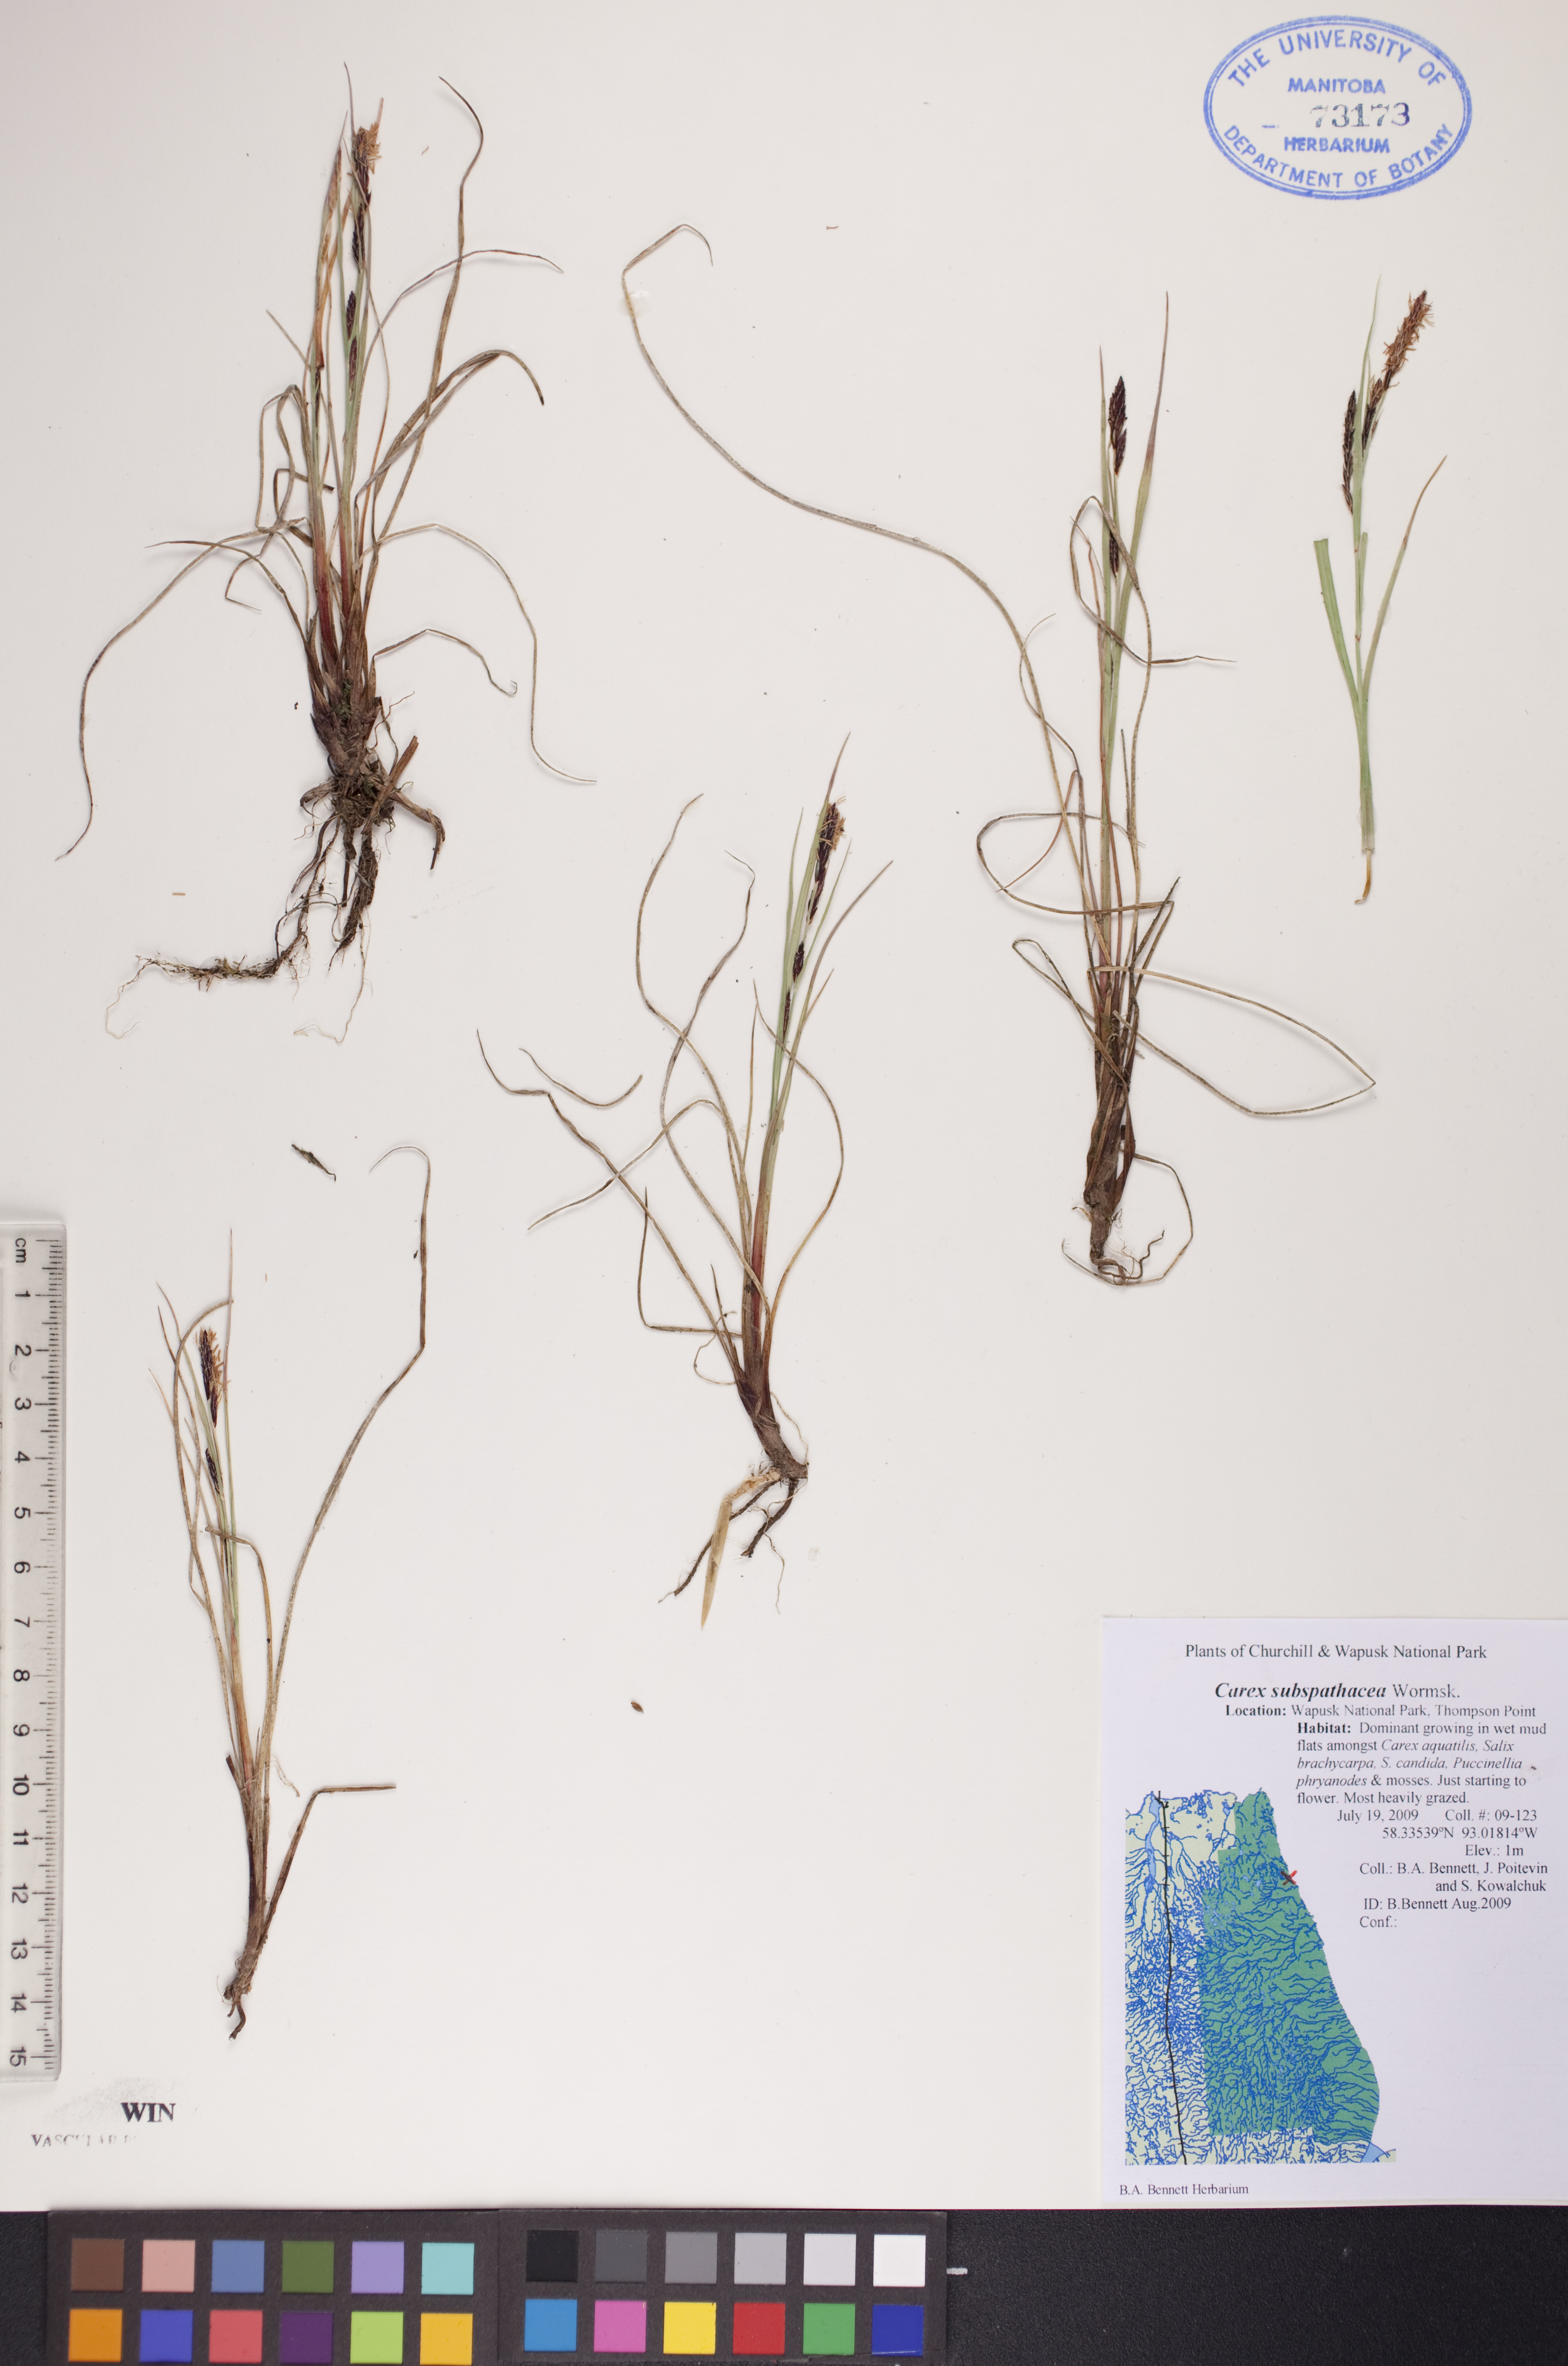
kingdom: Plantae
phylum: Tracheophyta
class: Liliopsida
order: Poales
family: Cyperaceae
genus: Carex
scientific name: Carex subspathacea
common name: Hoppner's sedge
